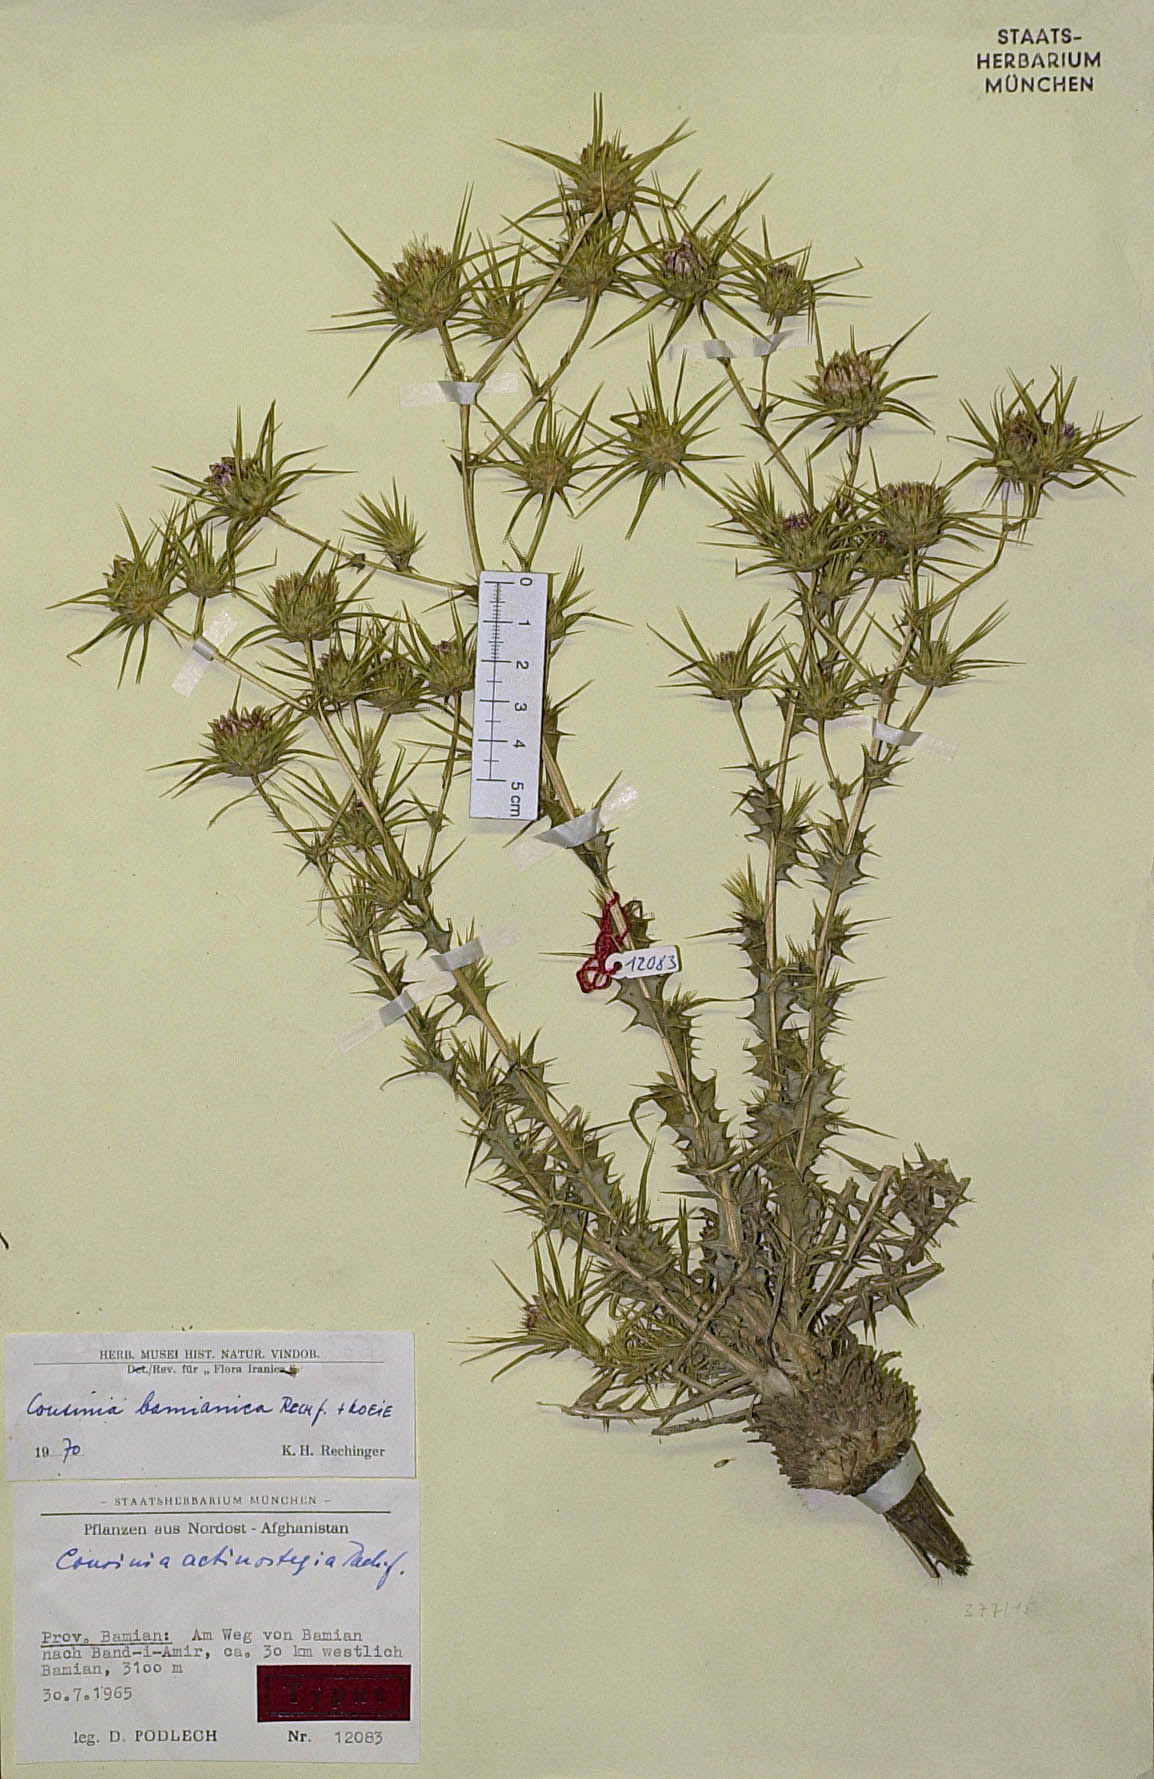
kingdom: Plantae
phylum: Tracheophyta
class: Magnoliopsida
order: Asterales
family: Asteraceae
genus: Cousinia
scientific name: Cousinia bamianica
